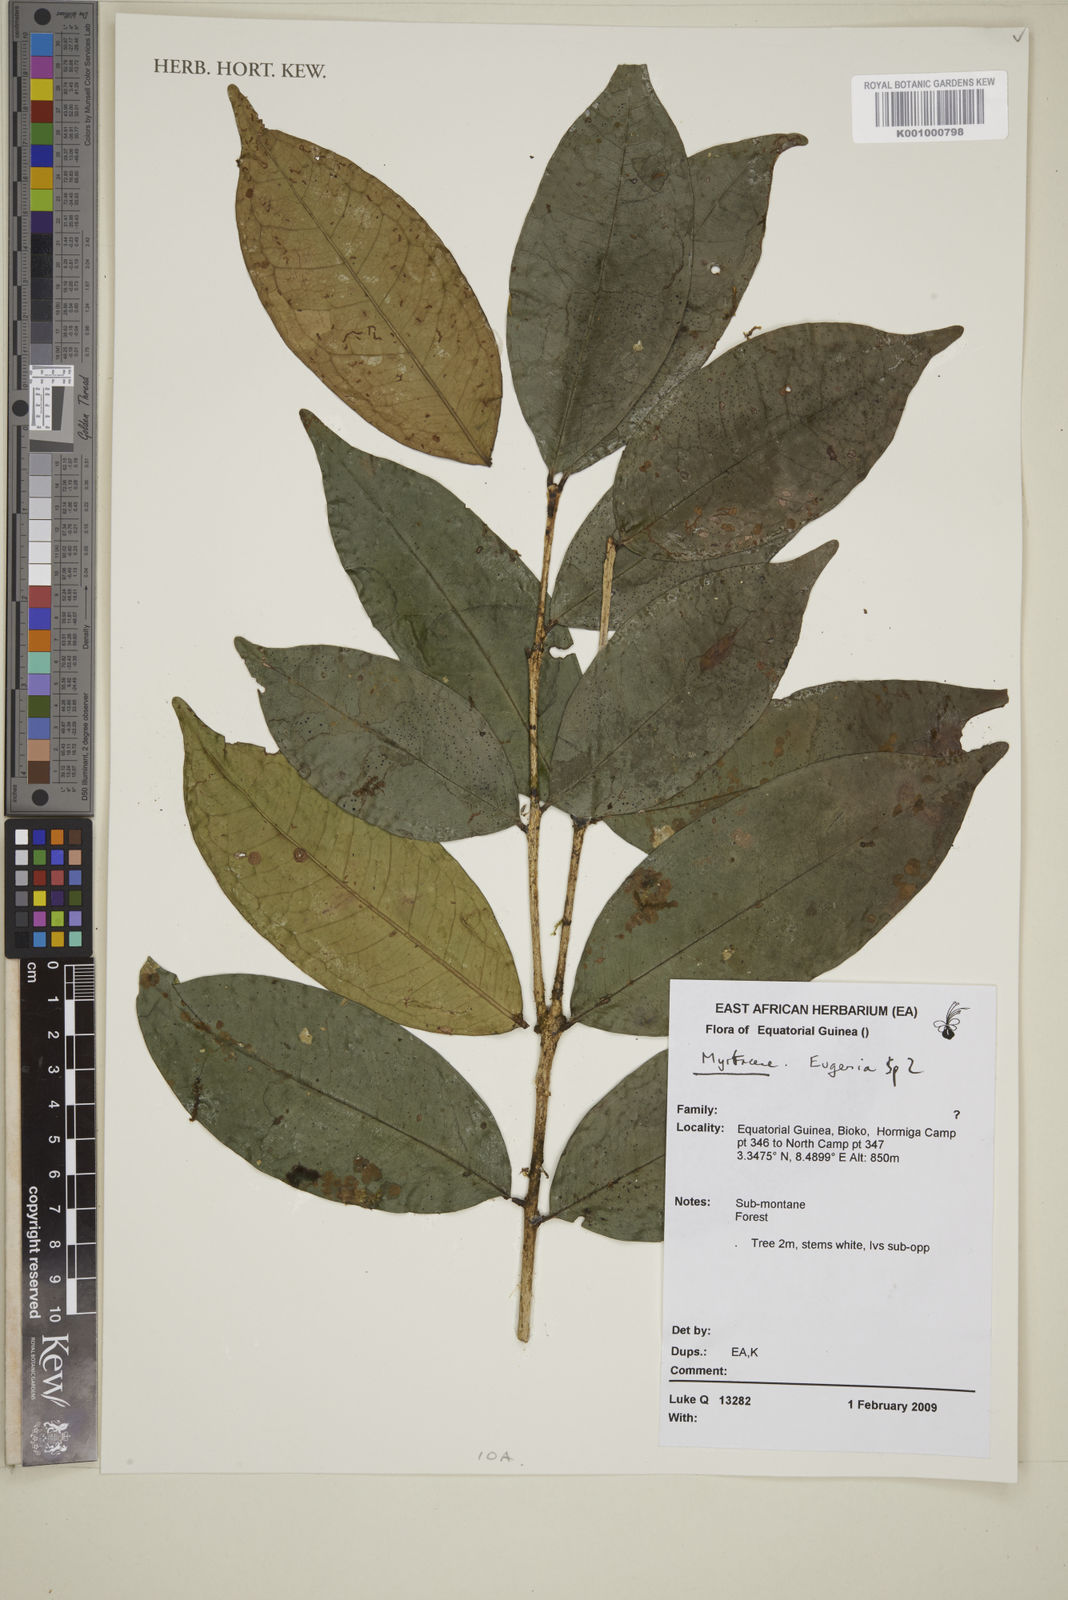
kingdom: Plantae
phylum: Tracheophyta
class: Magnoliopsida
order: Myrtales
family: Myrtaceae
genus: Eugenia
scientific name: Eugenia
